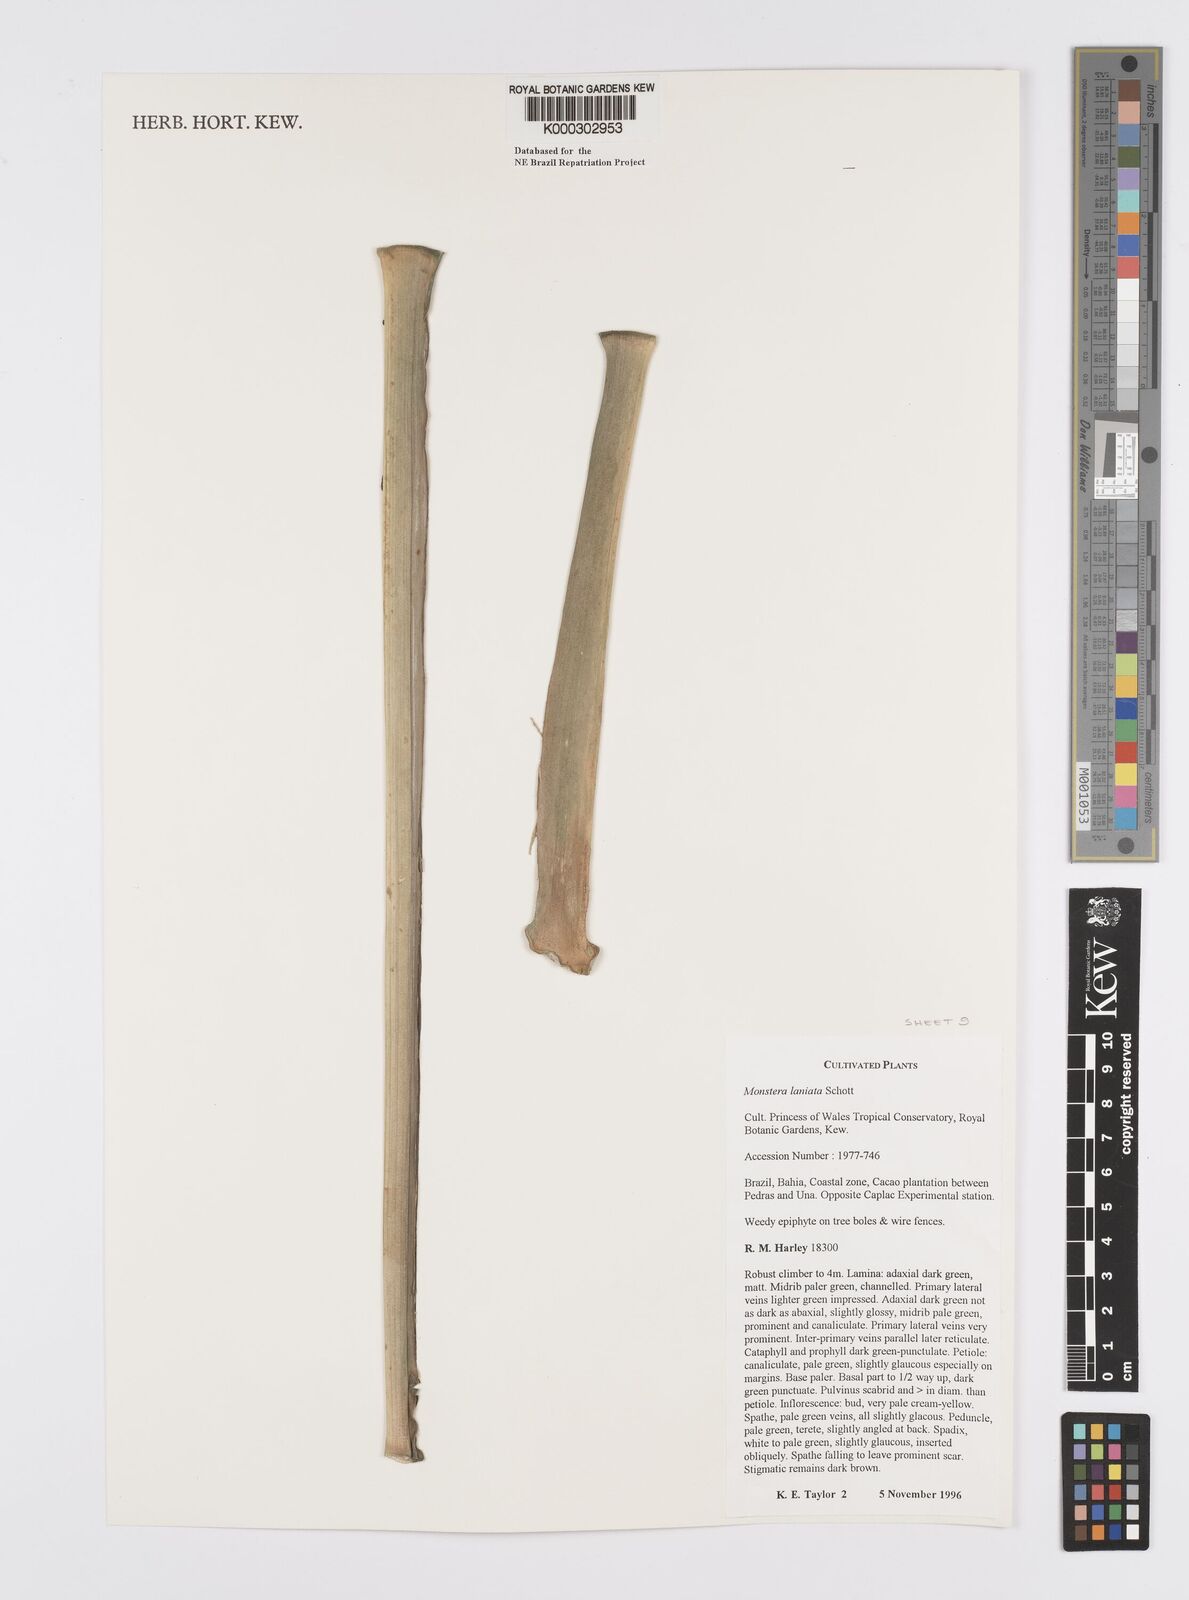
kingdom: Plantae
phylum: Tracheophyta
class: Liliopsida
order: Alismatales
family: Araceae
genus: Monstera
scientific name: Monstera adansonii
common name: Tarovine
